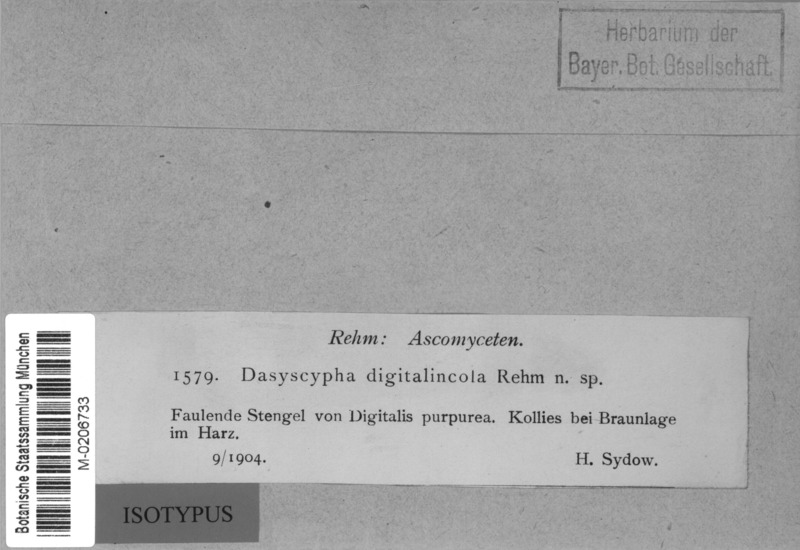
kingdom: Fungi
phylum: Ascomycota
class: Leotiomycetes
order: Helotiales
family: Hyaloscyphaceae
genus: Unguicularia
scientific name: Unguicularia digitalincola
